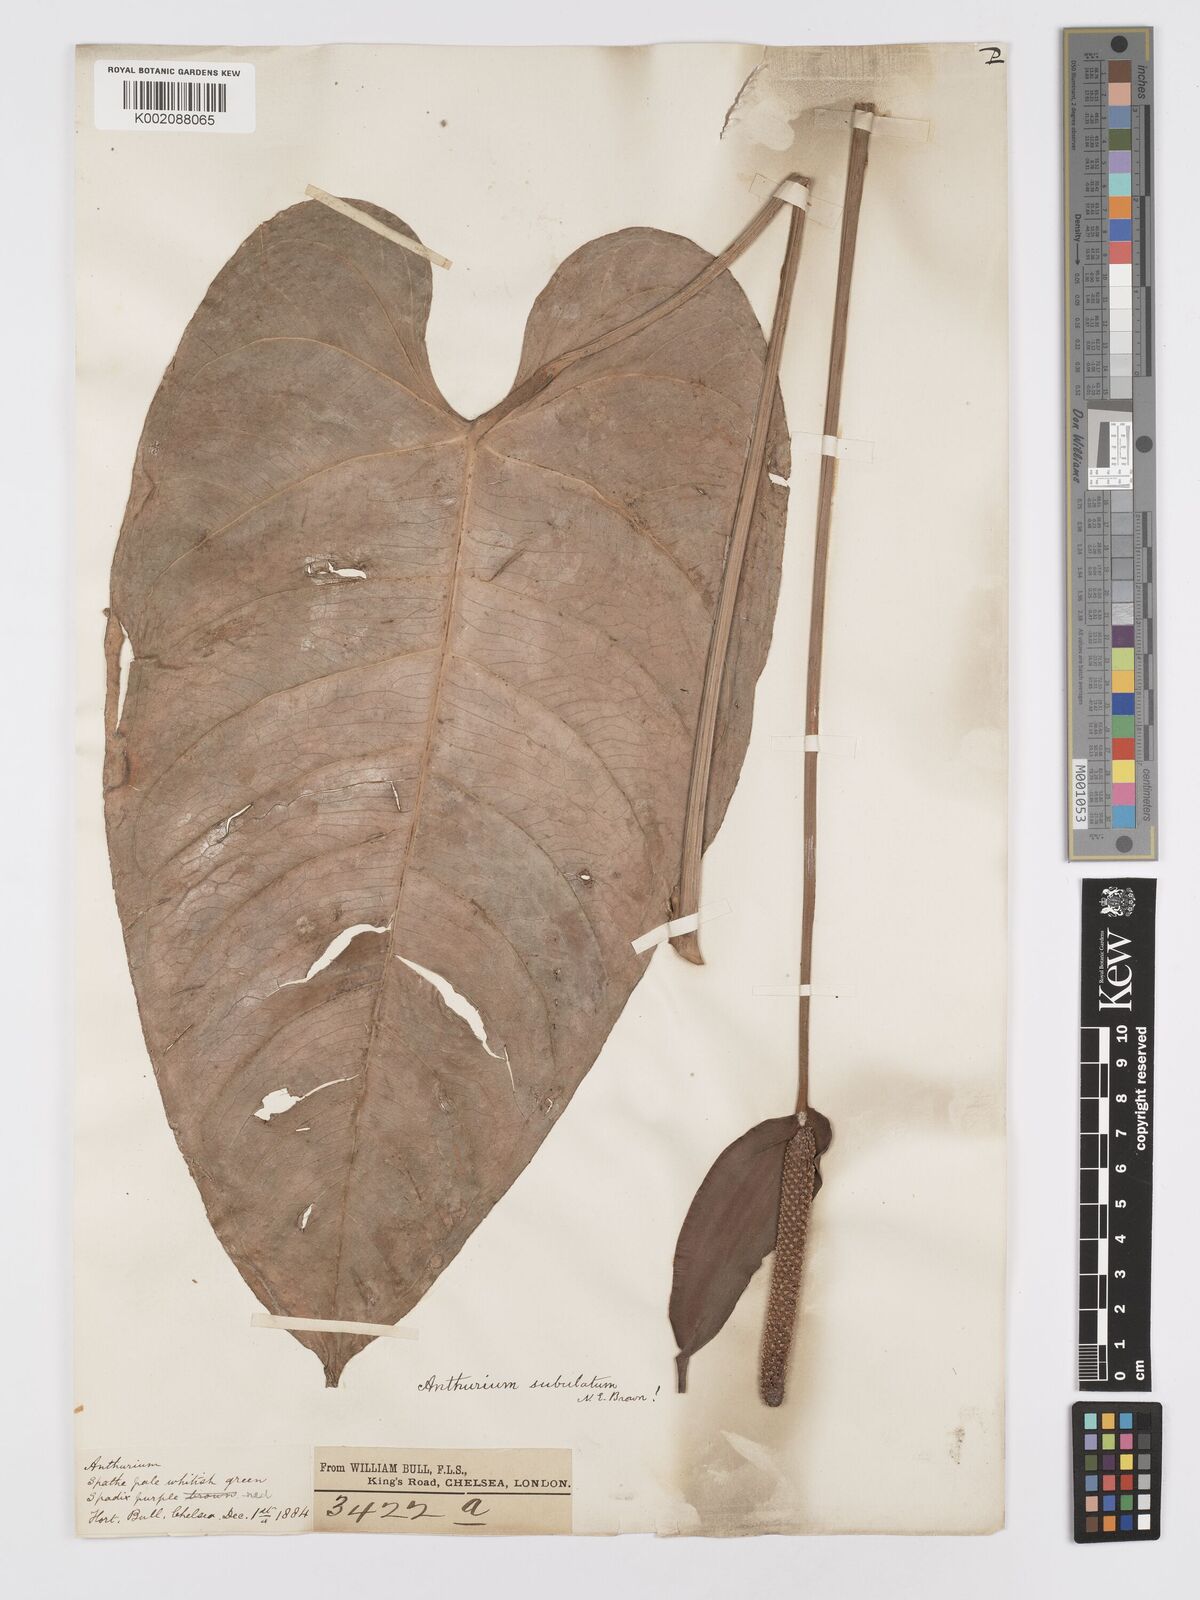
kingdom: Plantae
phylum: Tracheophyta
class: Liliopsida
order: Alismatales
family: Araceae
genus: Anthurium
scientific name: Anthurium subulatum
